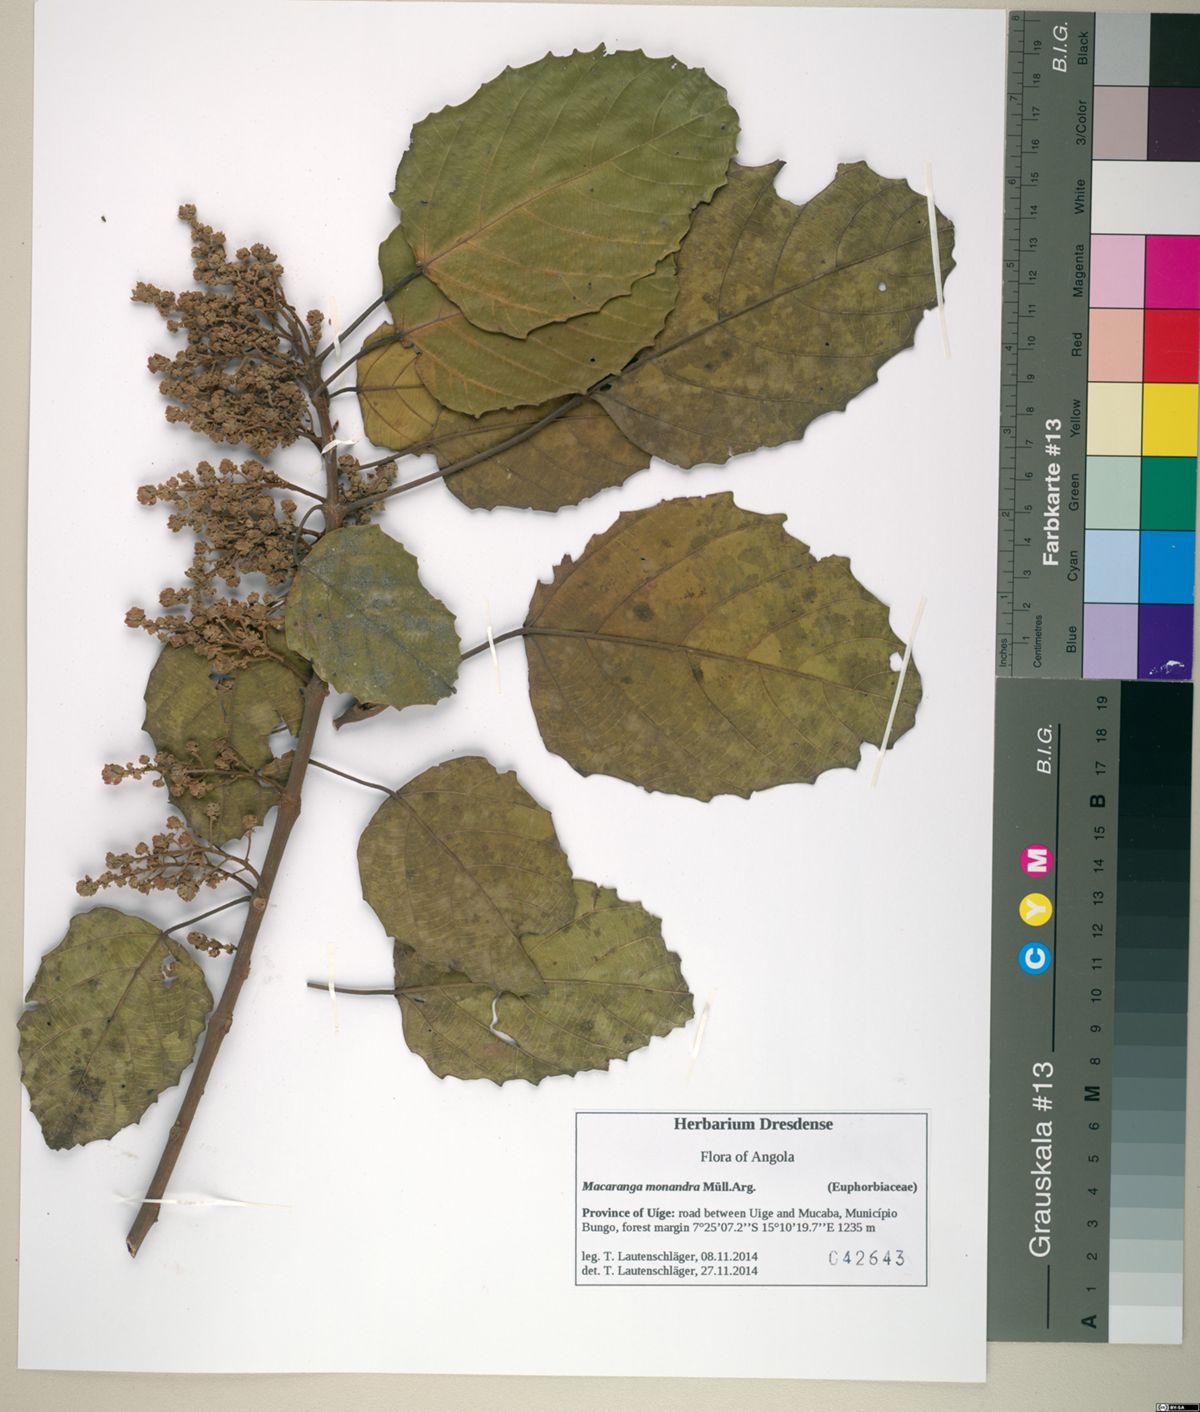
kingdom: Plantae
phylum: Tracheophyta
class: Magnoliopsida
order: Malpighiales
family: Euphorbiaceae
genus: Macaranga
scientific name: Macaranga monandra
